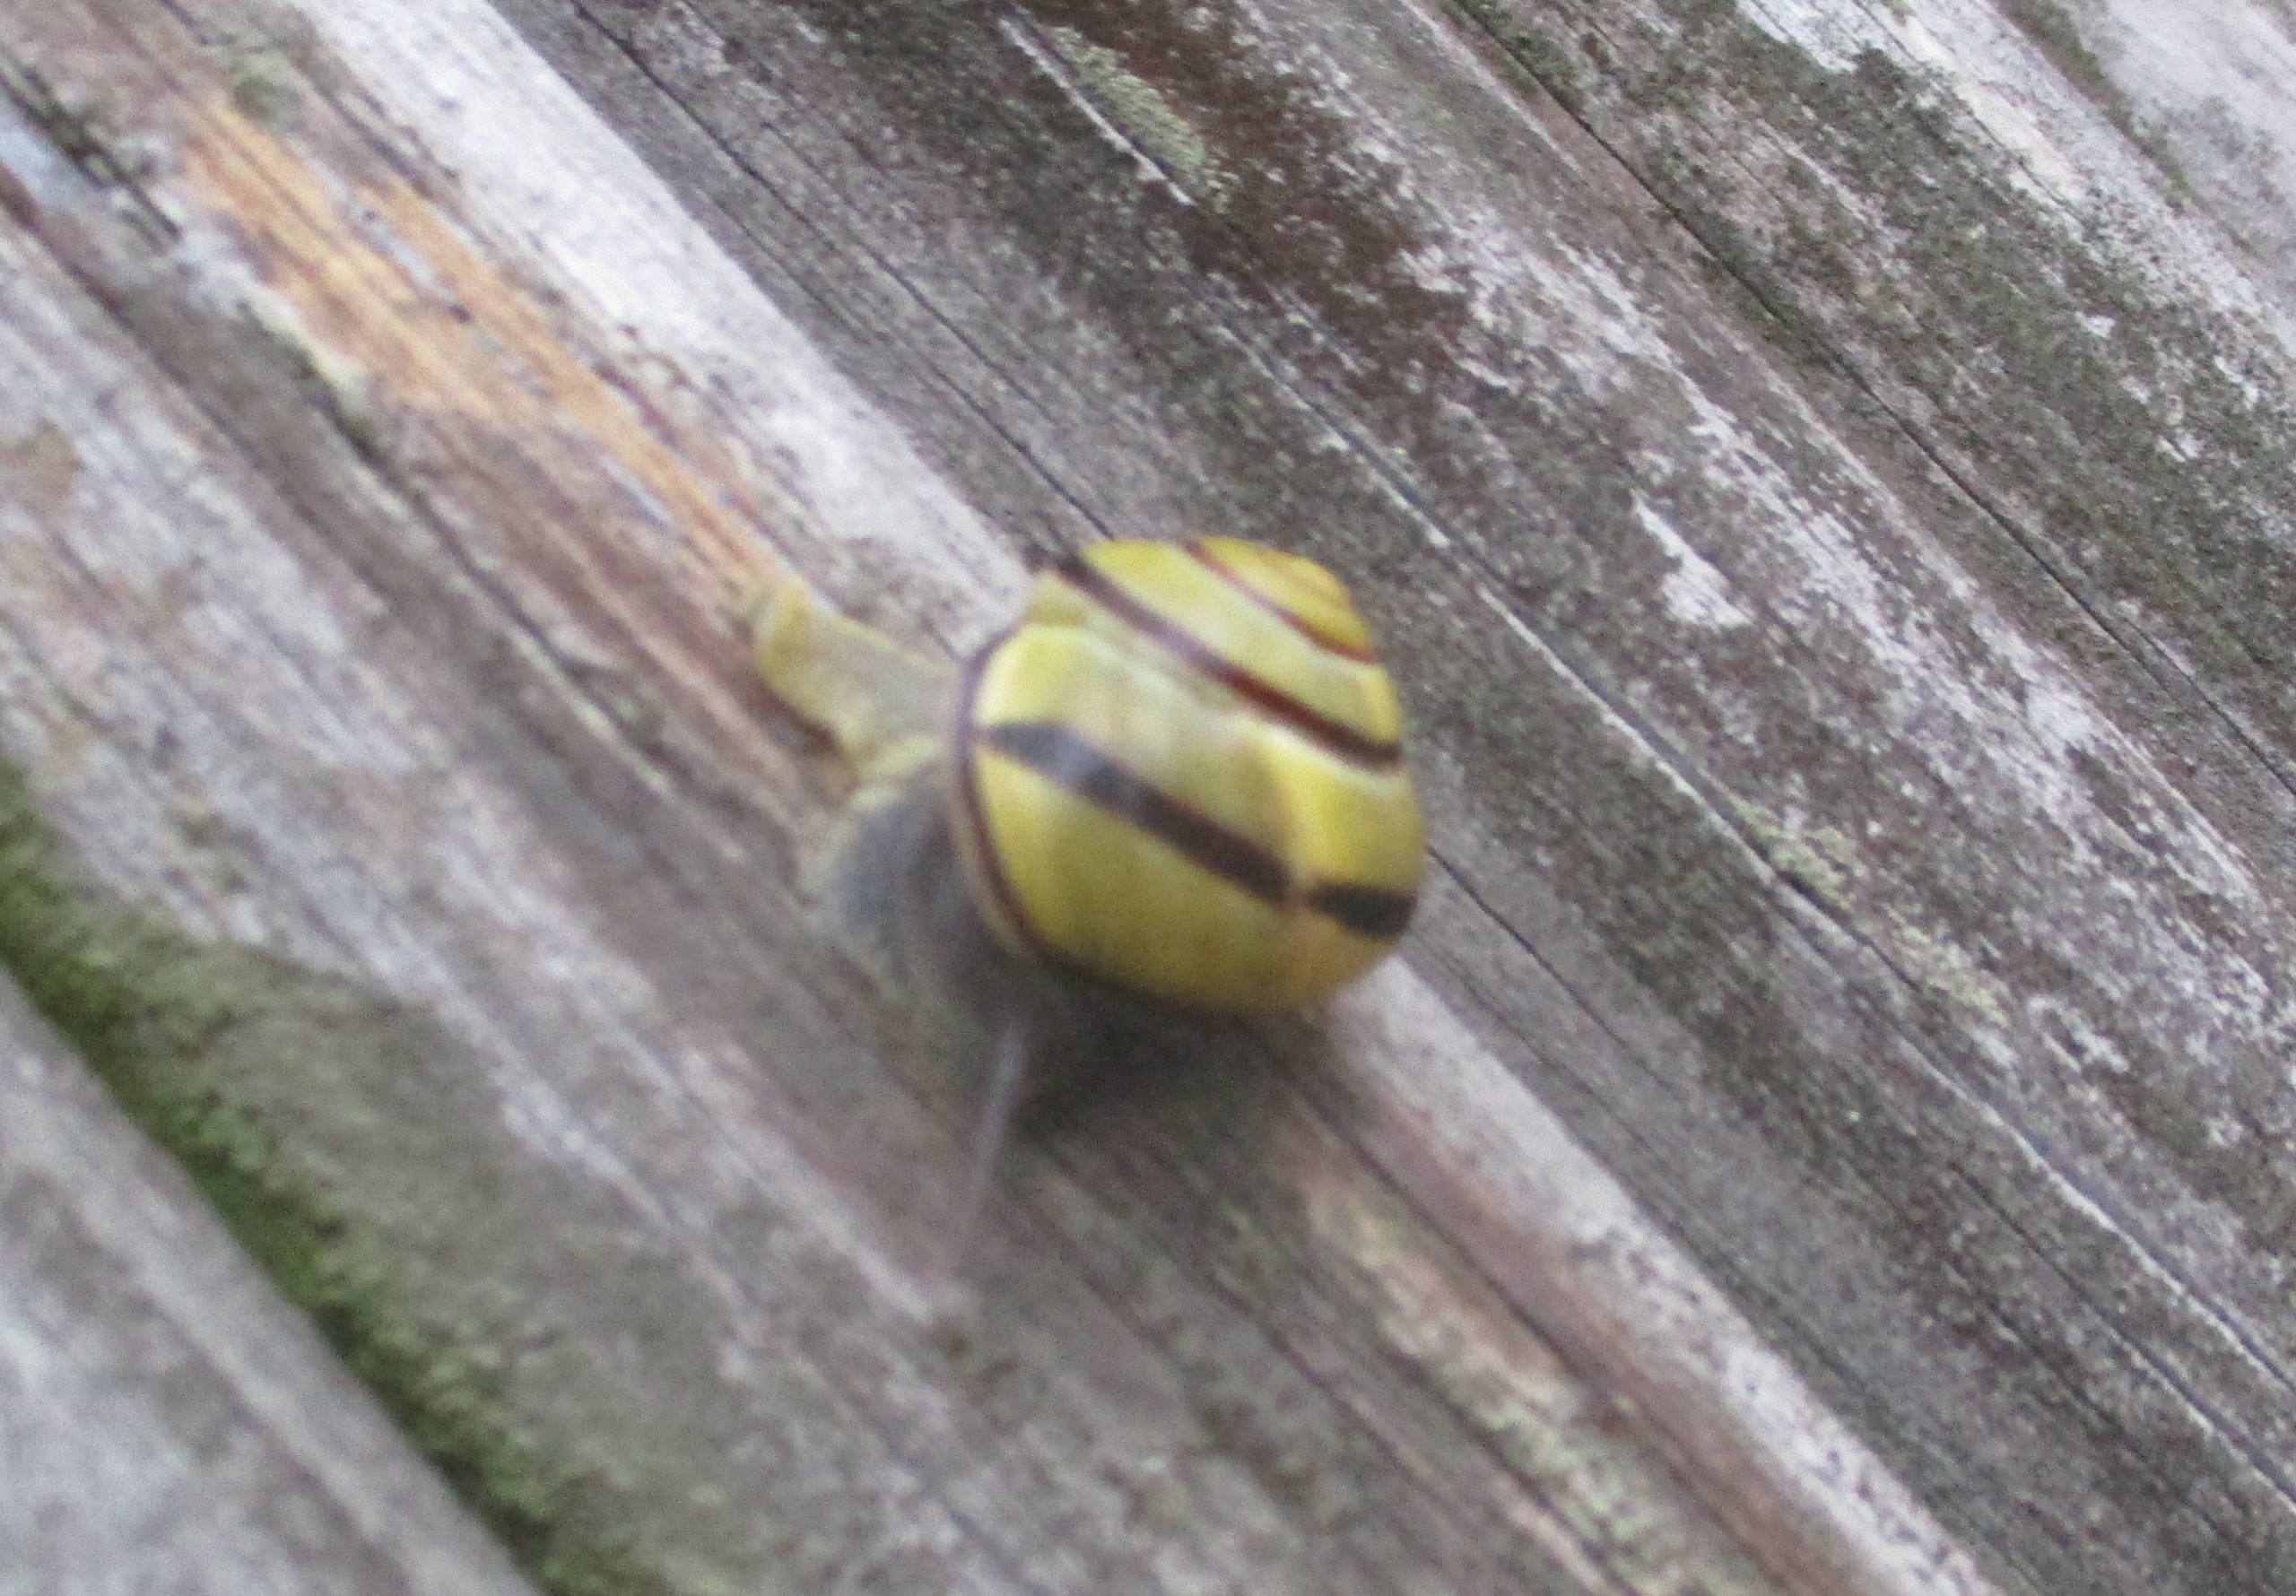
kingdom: Animalia
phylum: Mollusca
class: Gastropoda
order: Stylommatophora
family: Helicidae
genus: Cepaea
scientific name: Cepaea nemoralis
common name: Lundsnegl
